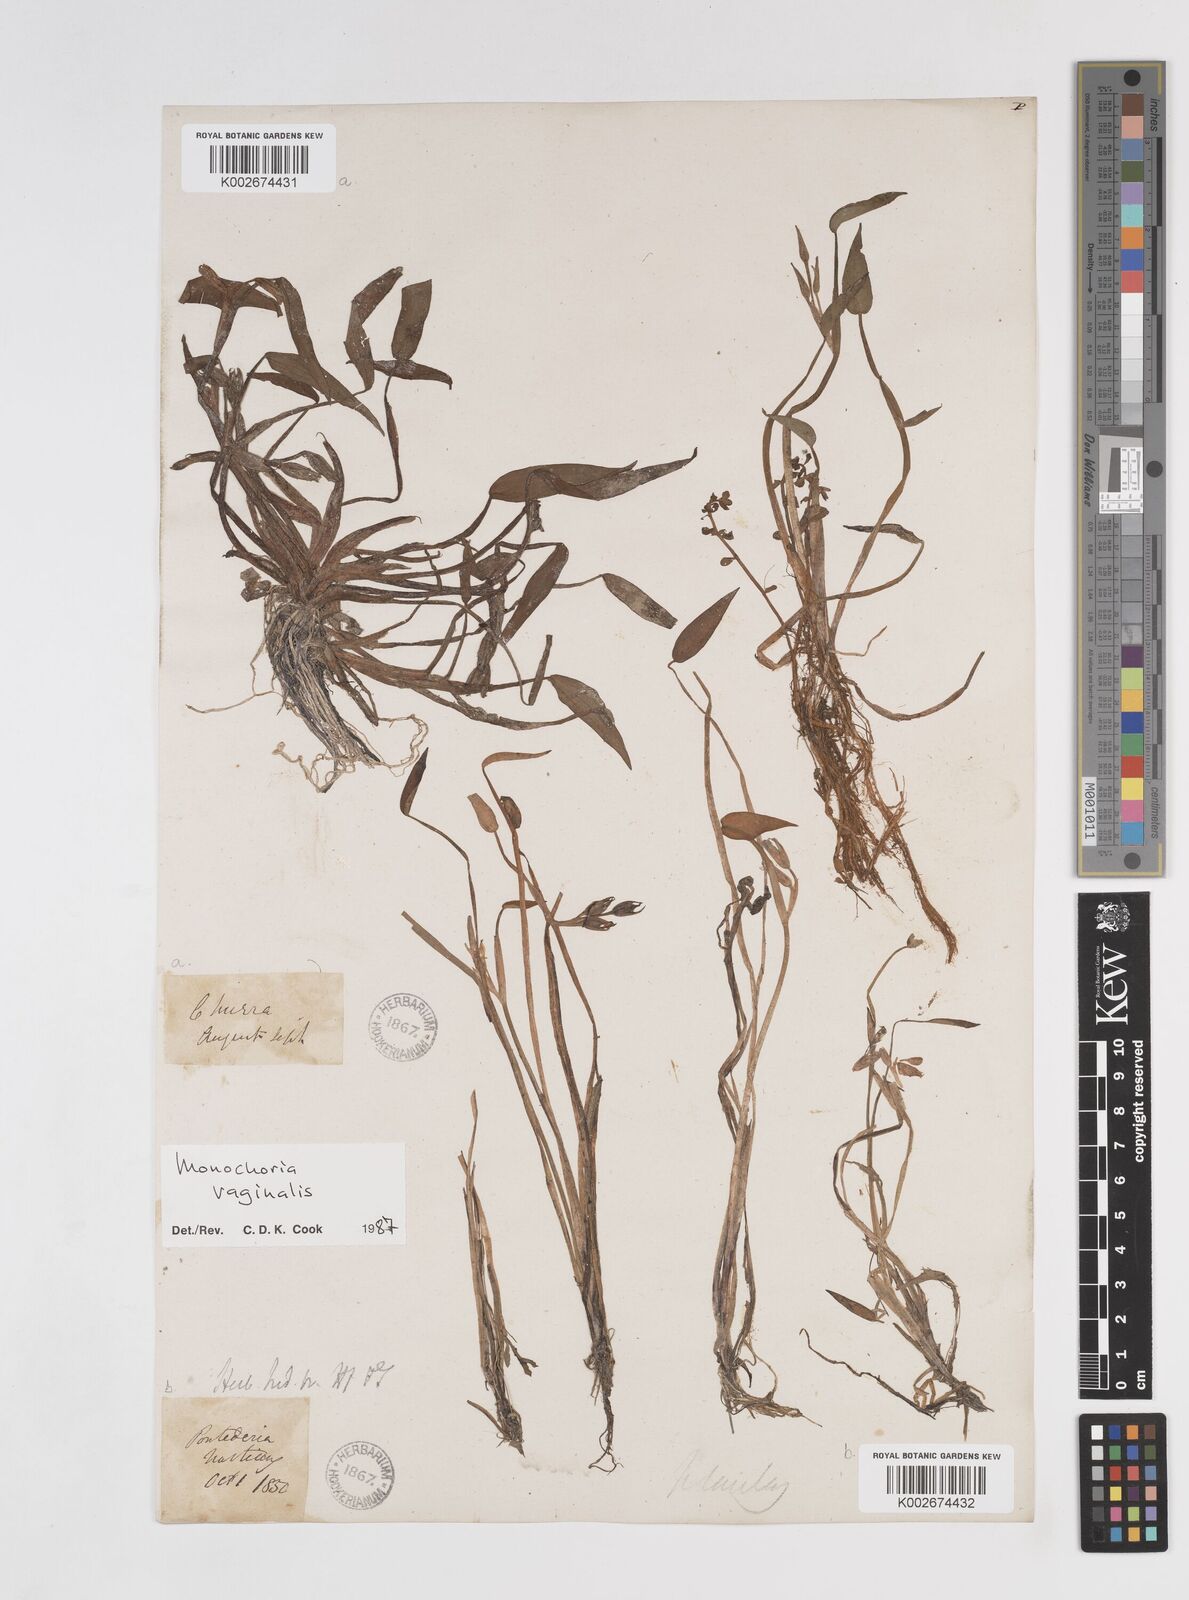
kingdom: Plantae
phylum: Tracheophyta
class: Liliopsida
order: Commelinales
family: Pontederiaceae
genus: Pontederia
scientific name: Pontederia vaginalis
